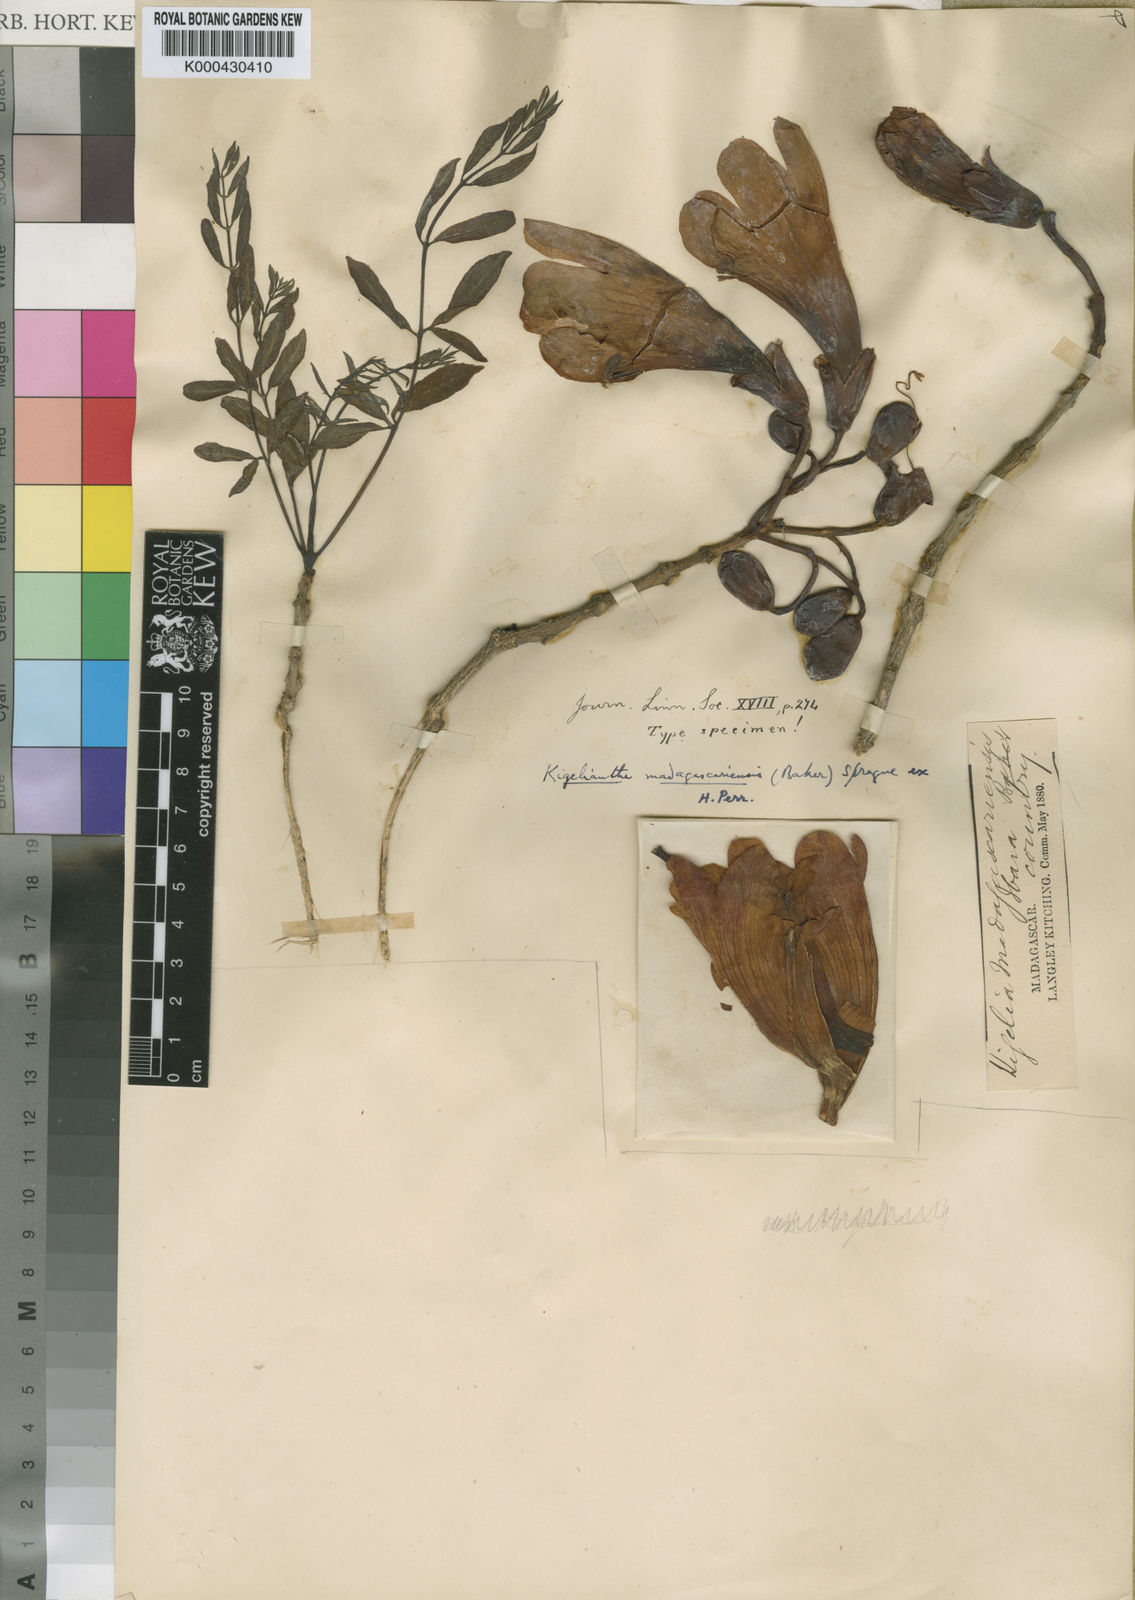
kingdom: Plantae
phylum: Tracheophyta
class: Magnoliopsida
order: Lamiales
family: Bignoniaceae
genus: Fernandoa
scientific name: Fernandoa madagascariensis
